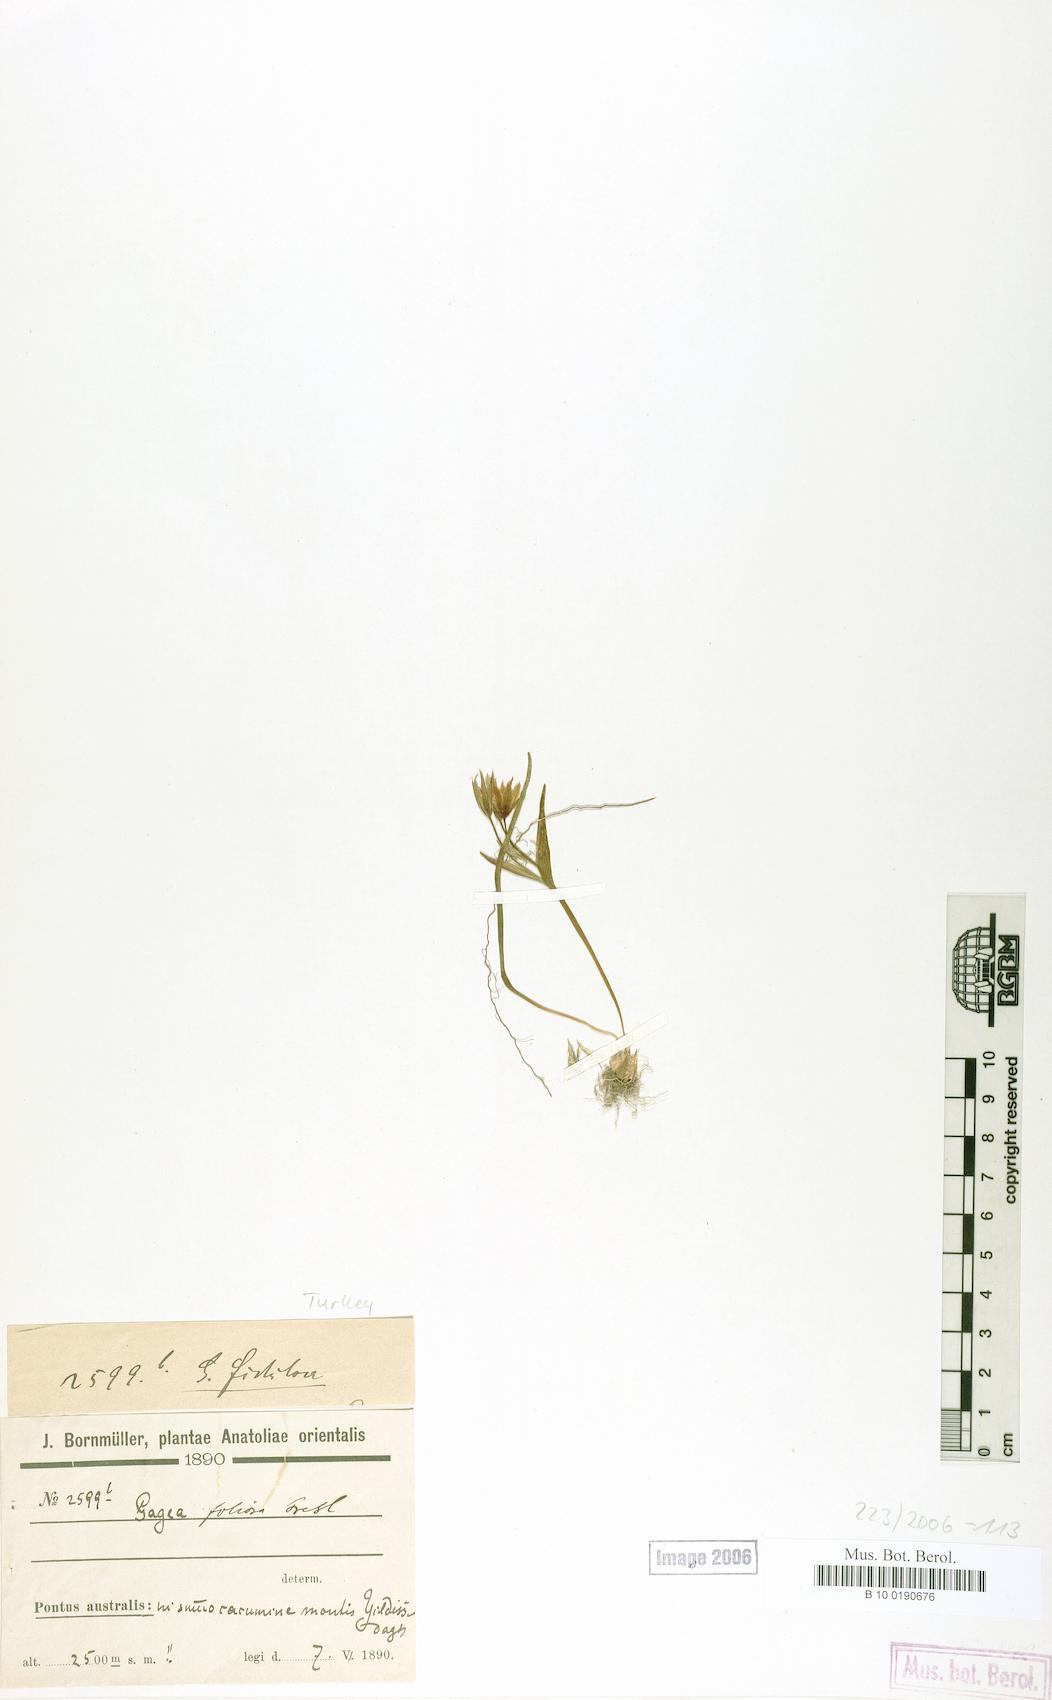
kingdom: Plantae
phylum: Tracheophyta
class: Liliopsida
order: Liliales
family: Liliaceae
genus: Gagea
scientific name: Gagea bohemica
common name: Early star-of-bethlehem
